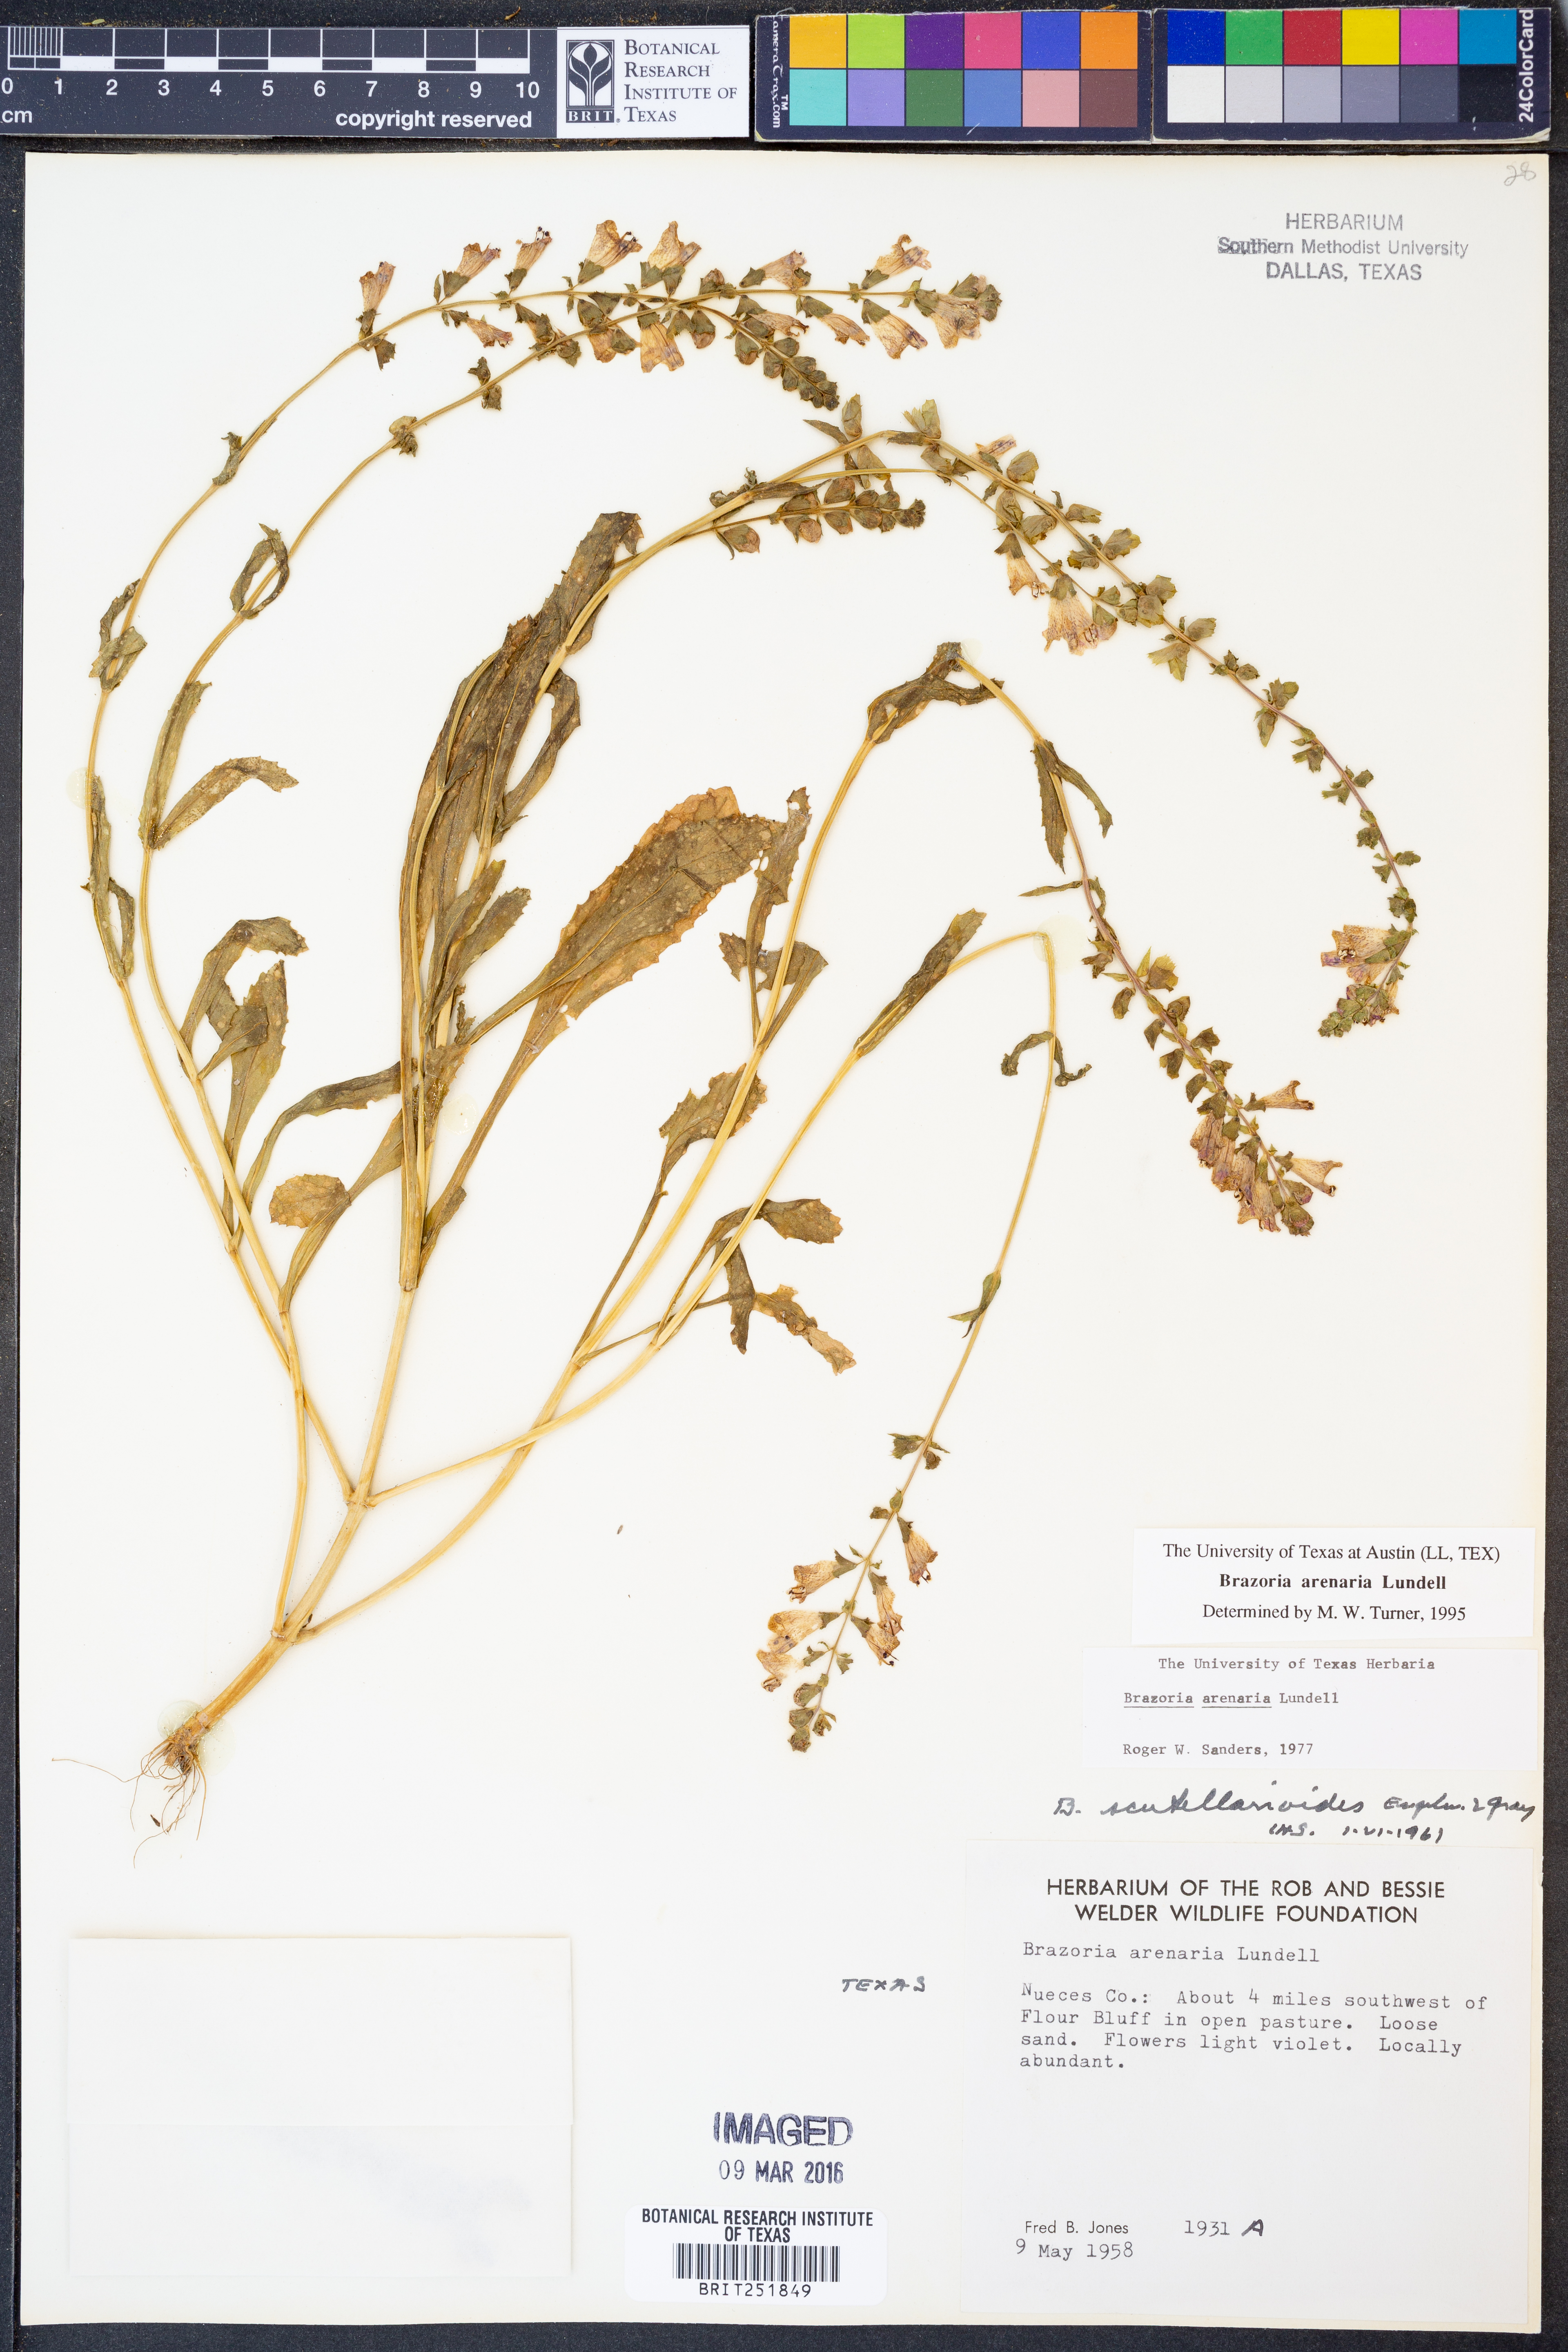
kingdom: Plantae
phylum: Tracheophyta
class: Magnoliopsida
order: Lamiales
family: Lamiaceae
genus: Brazoria
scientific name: Brazoria arenaria
